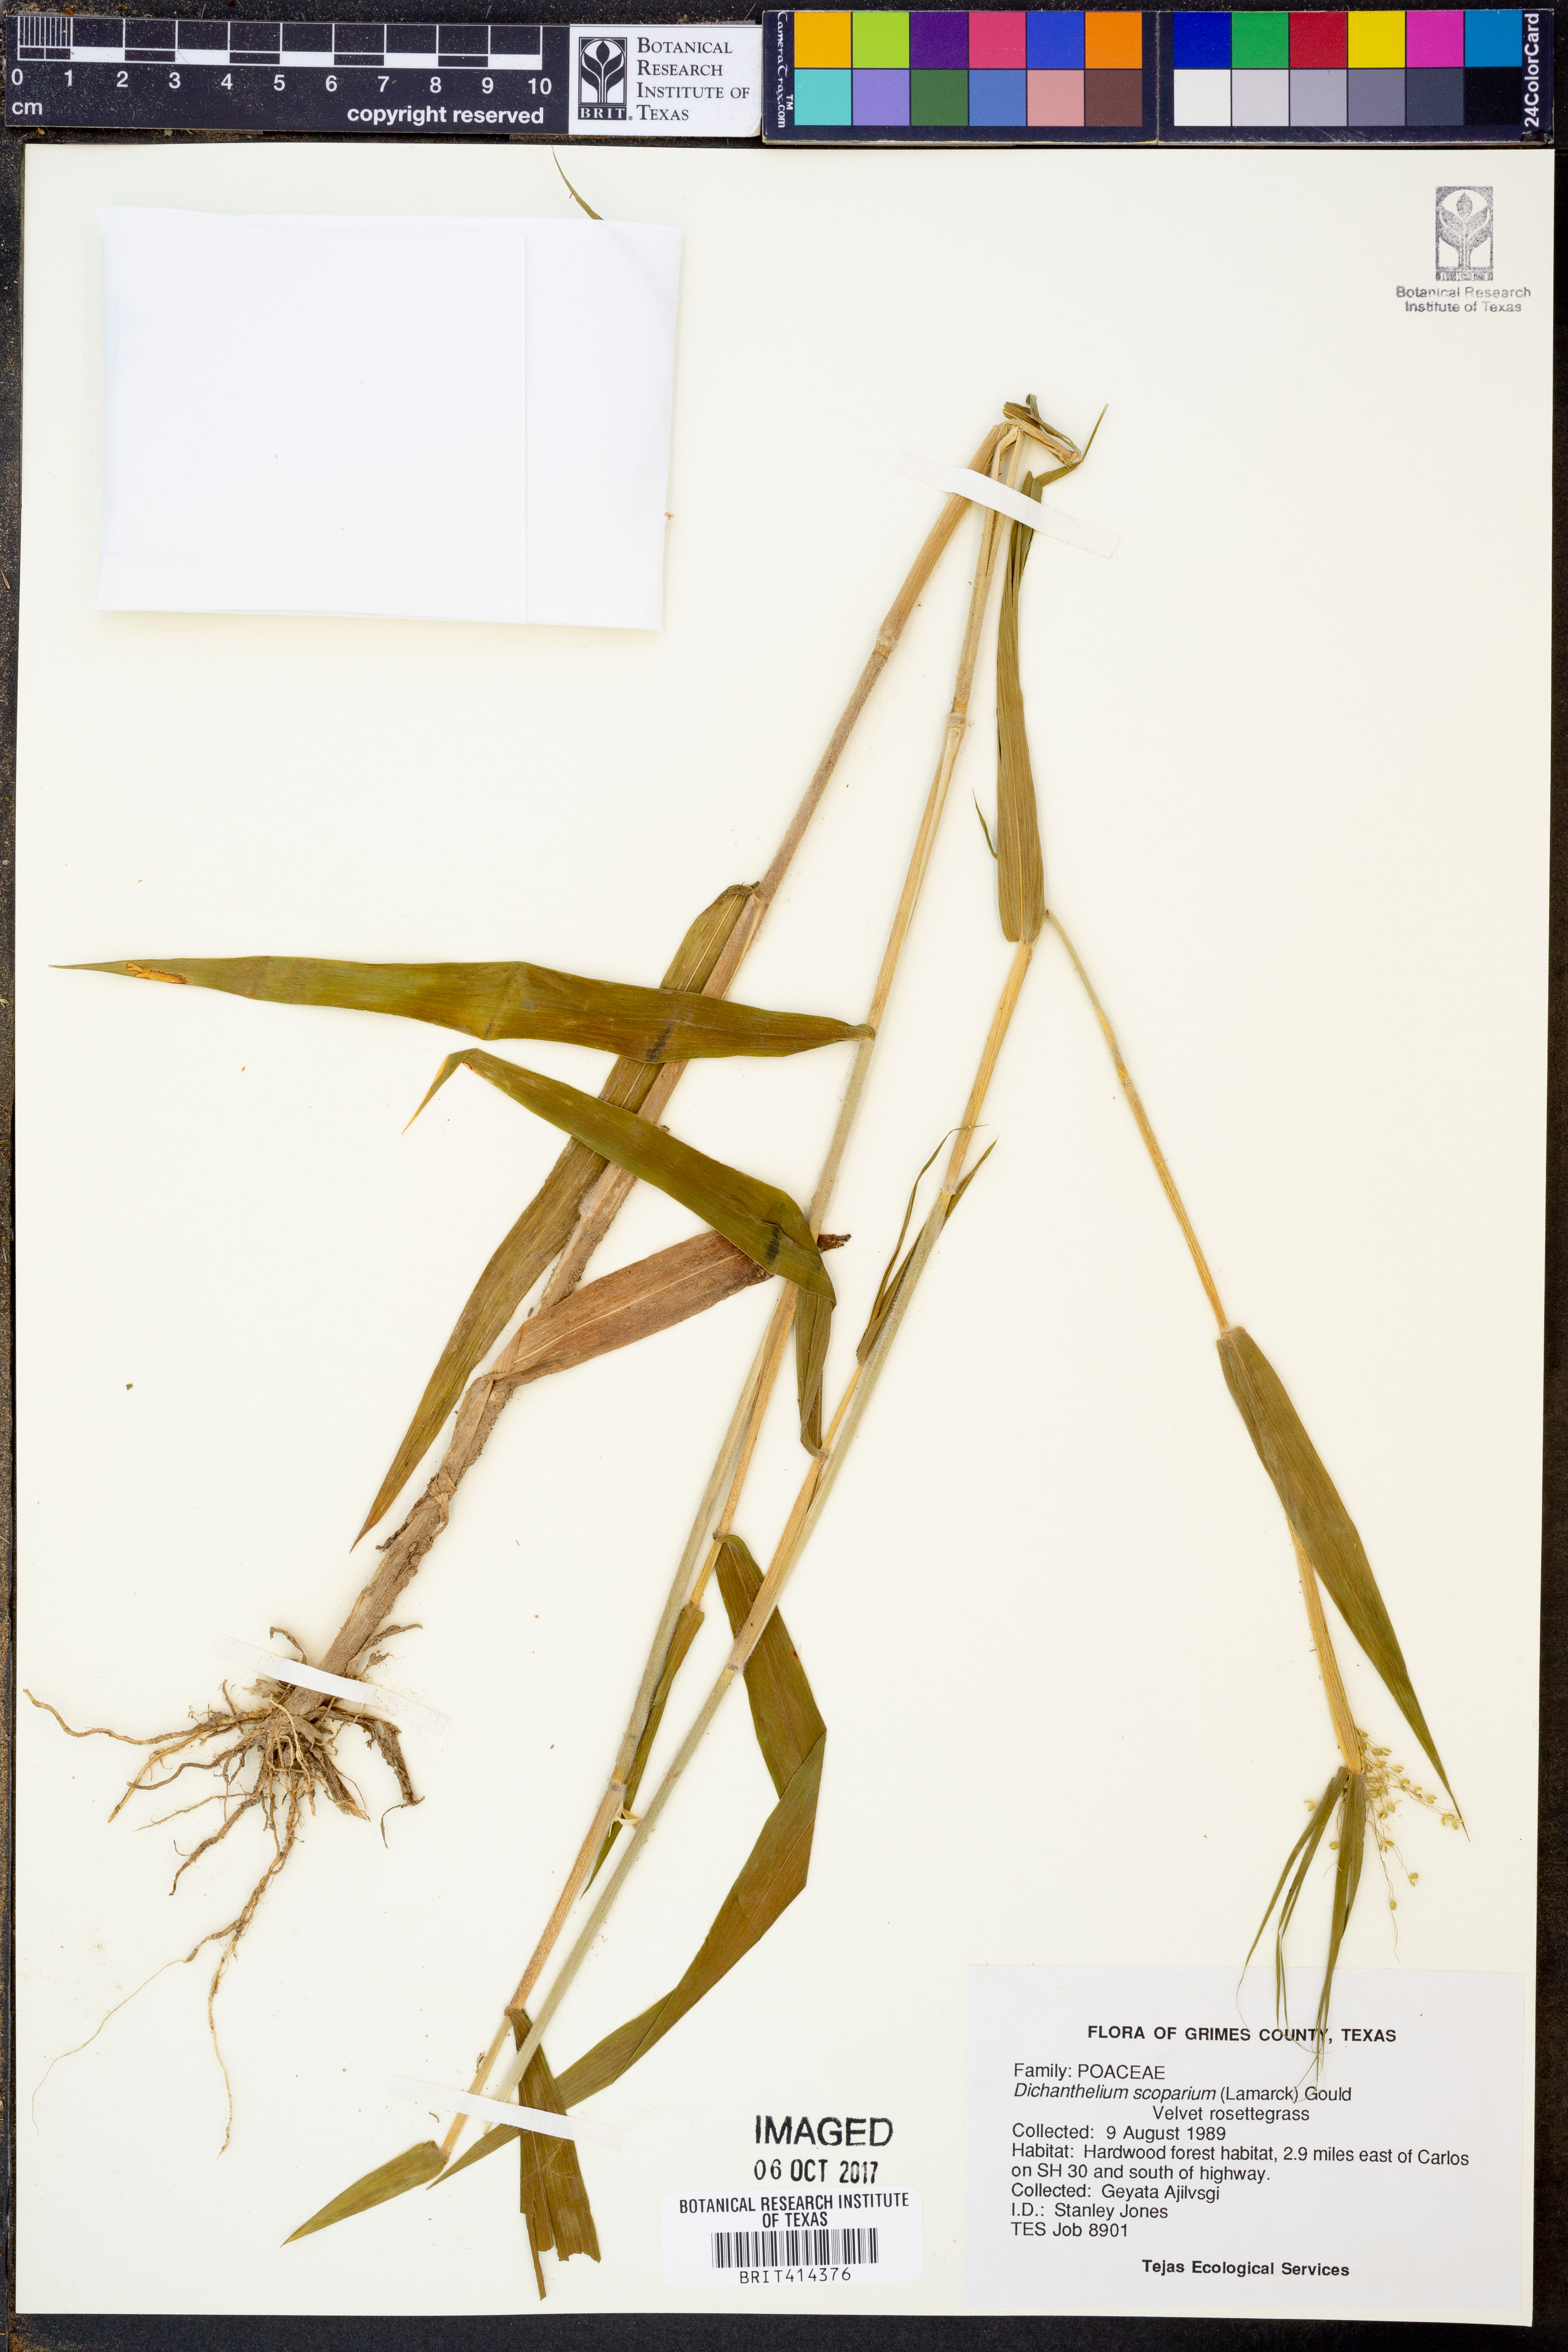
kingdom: Plantae
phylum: Tracheophyta
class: Liliopsida
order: Poales
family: Poaceae
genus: Dichanthelium
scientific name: Dichanthelium scoparium
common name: Velvety panic grass
